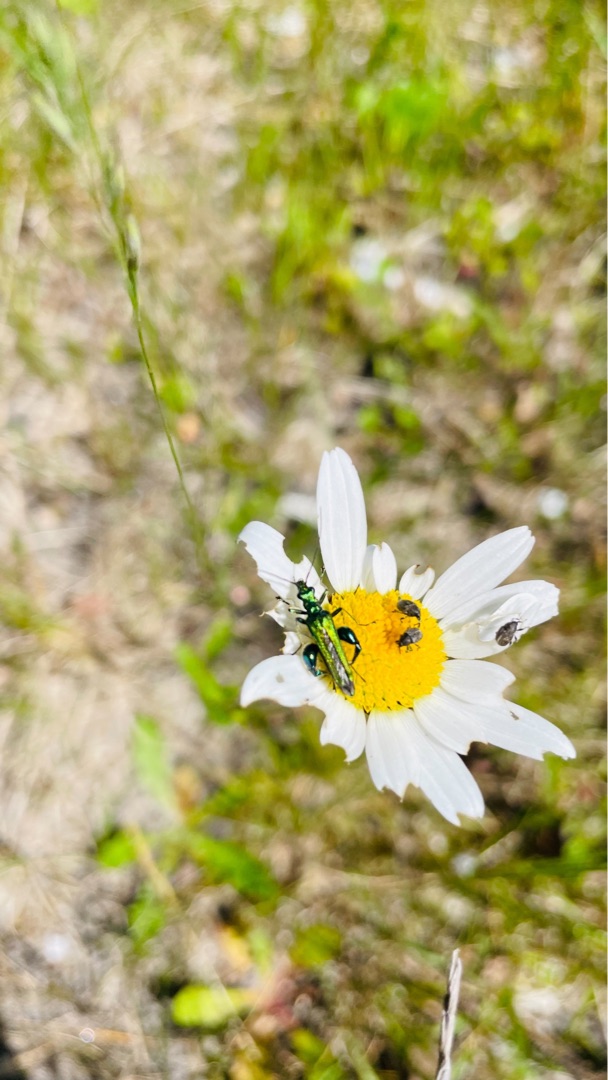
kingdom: Animalia
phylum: Arthropoda
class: Insecta
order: Coleoptera
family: Oedemeridae
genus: Oedemera
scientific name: Oedemera nobilis
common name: Tyklårssolbille
